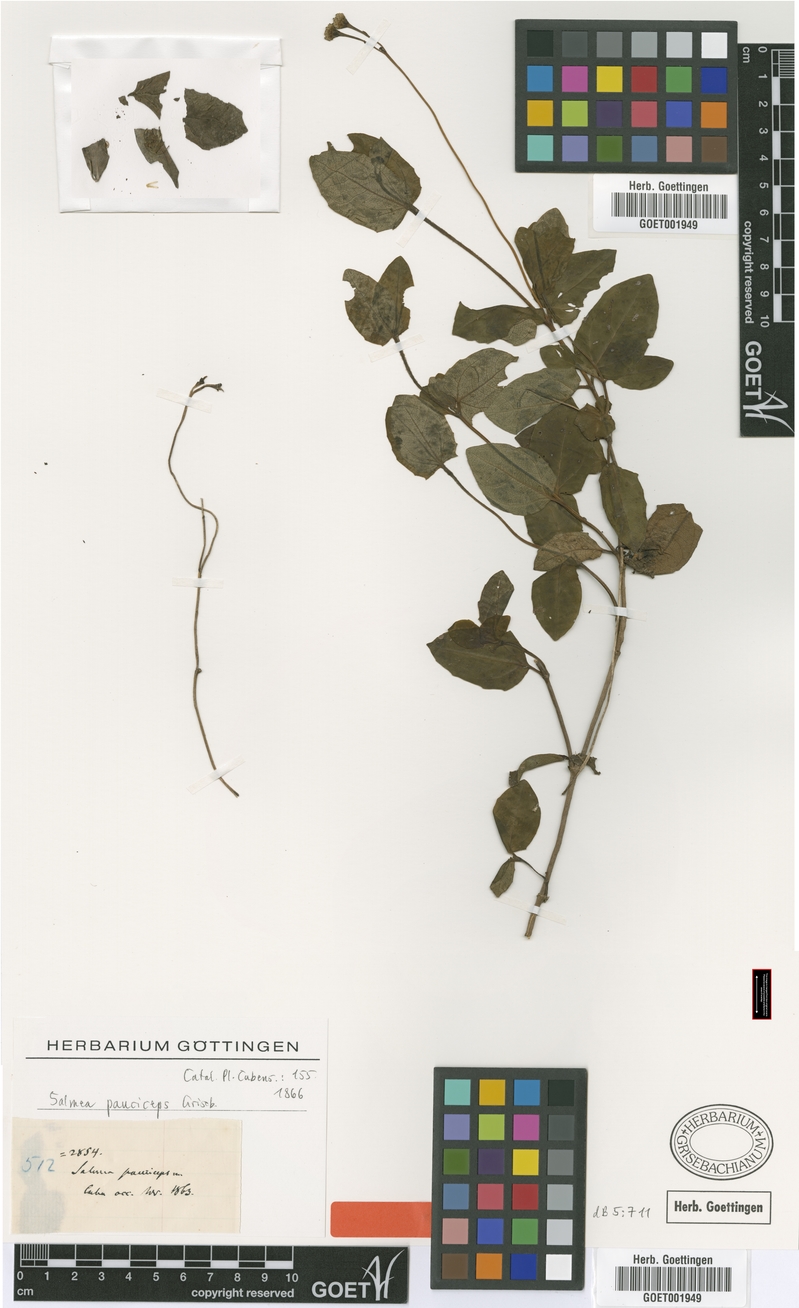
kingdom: Plantae
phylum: Tracheophyta
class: Magnoliopsida
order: Asterales
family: Asteraceae
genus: Salmea
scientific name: Salmea pauciceps
